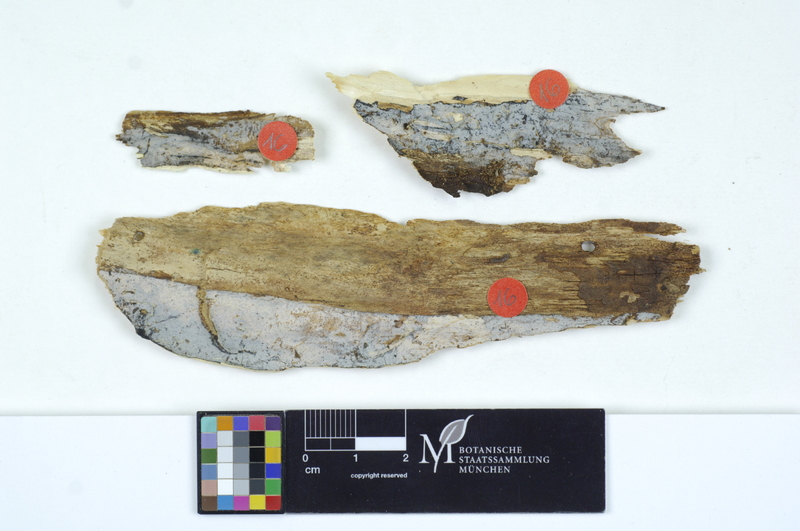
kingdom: Fungi
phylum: Basidiomycota
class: Agaricomycetes
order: Auriculariales
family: Auriculariaceae
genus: Exidiopsis
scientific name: Exidiopsis effusa
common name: Hair ice crust
